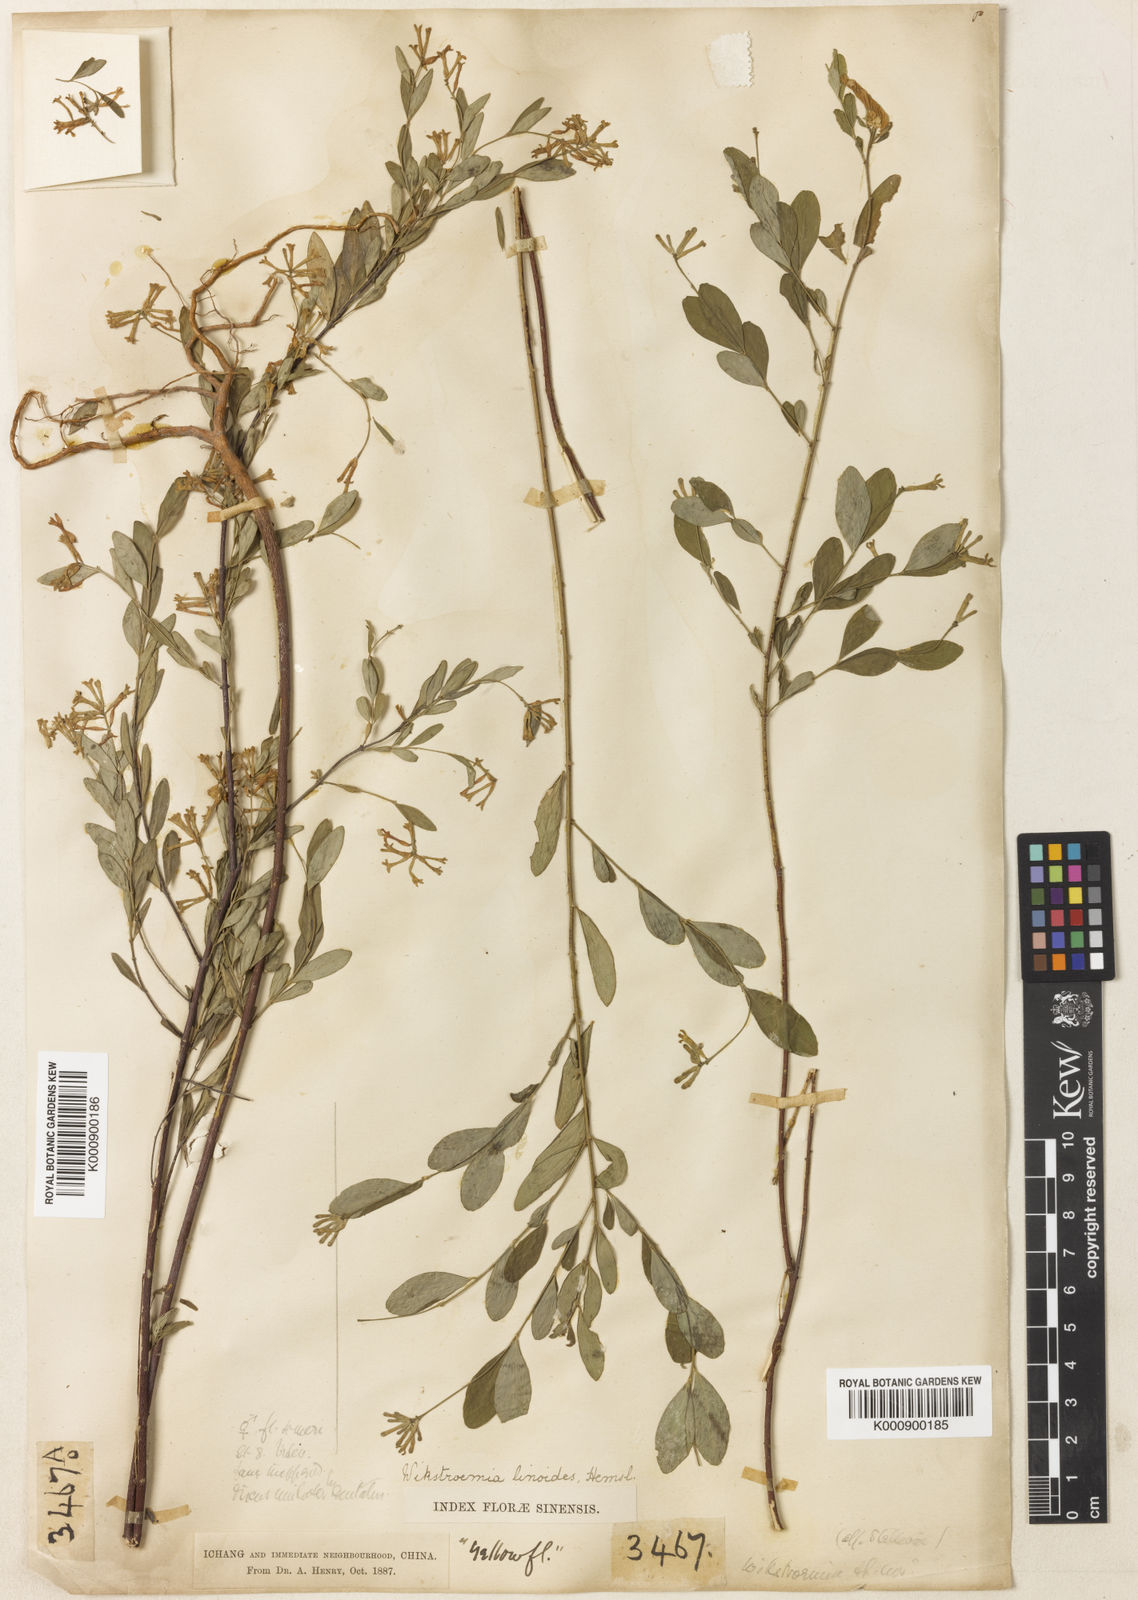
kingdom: Plantae
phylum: Tracheophyta
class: Magnoliopsida
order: Malvales
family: Thymelaeaceae
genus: Wikstroemia
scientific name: Wikstroemia linoides
